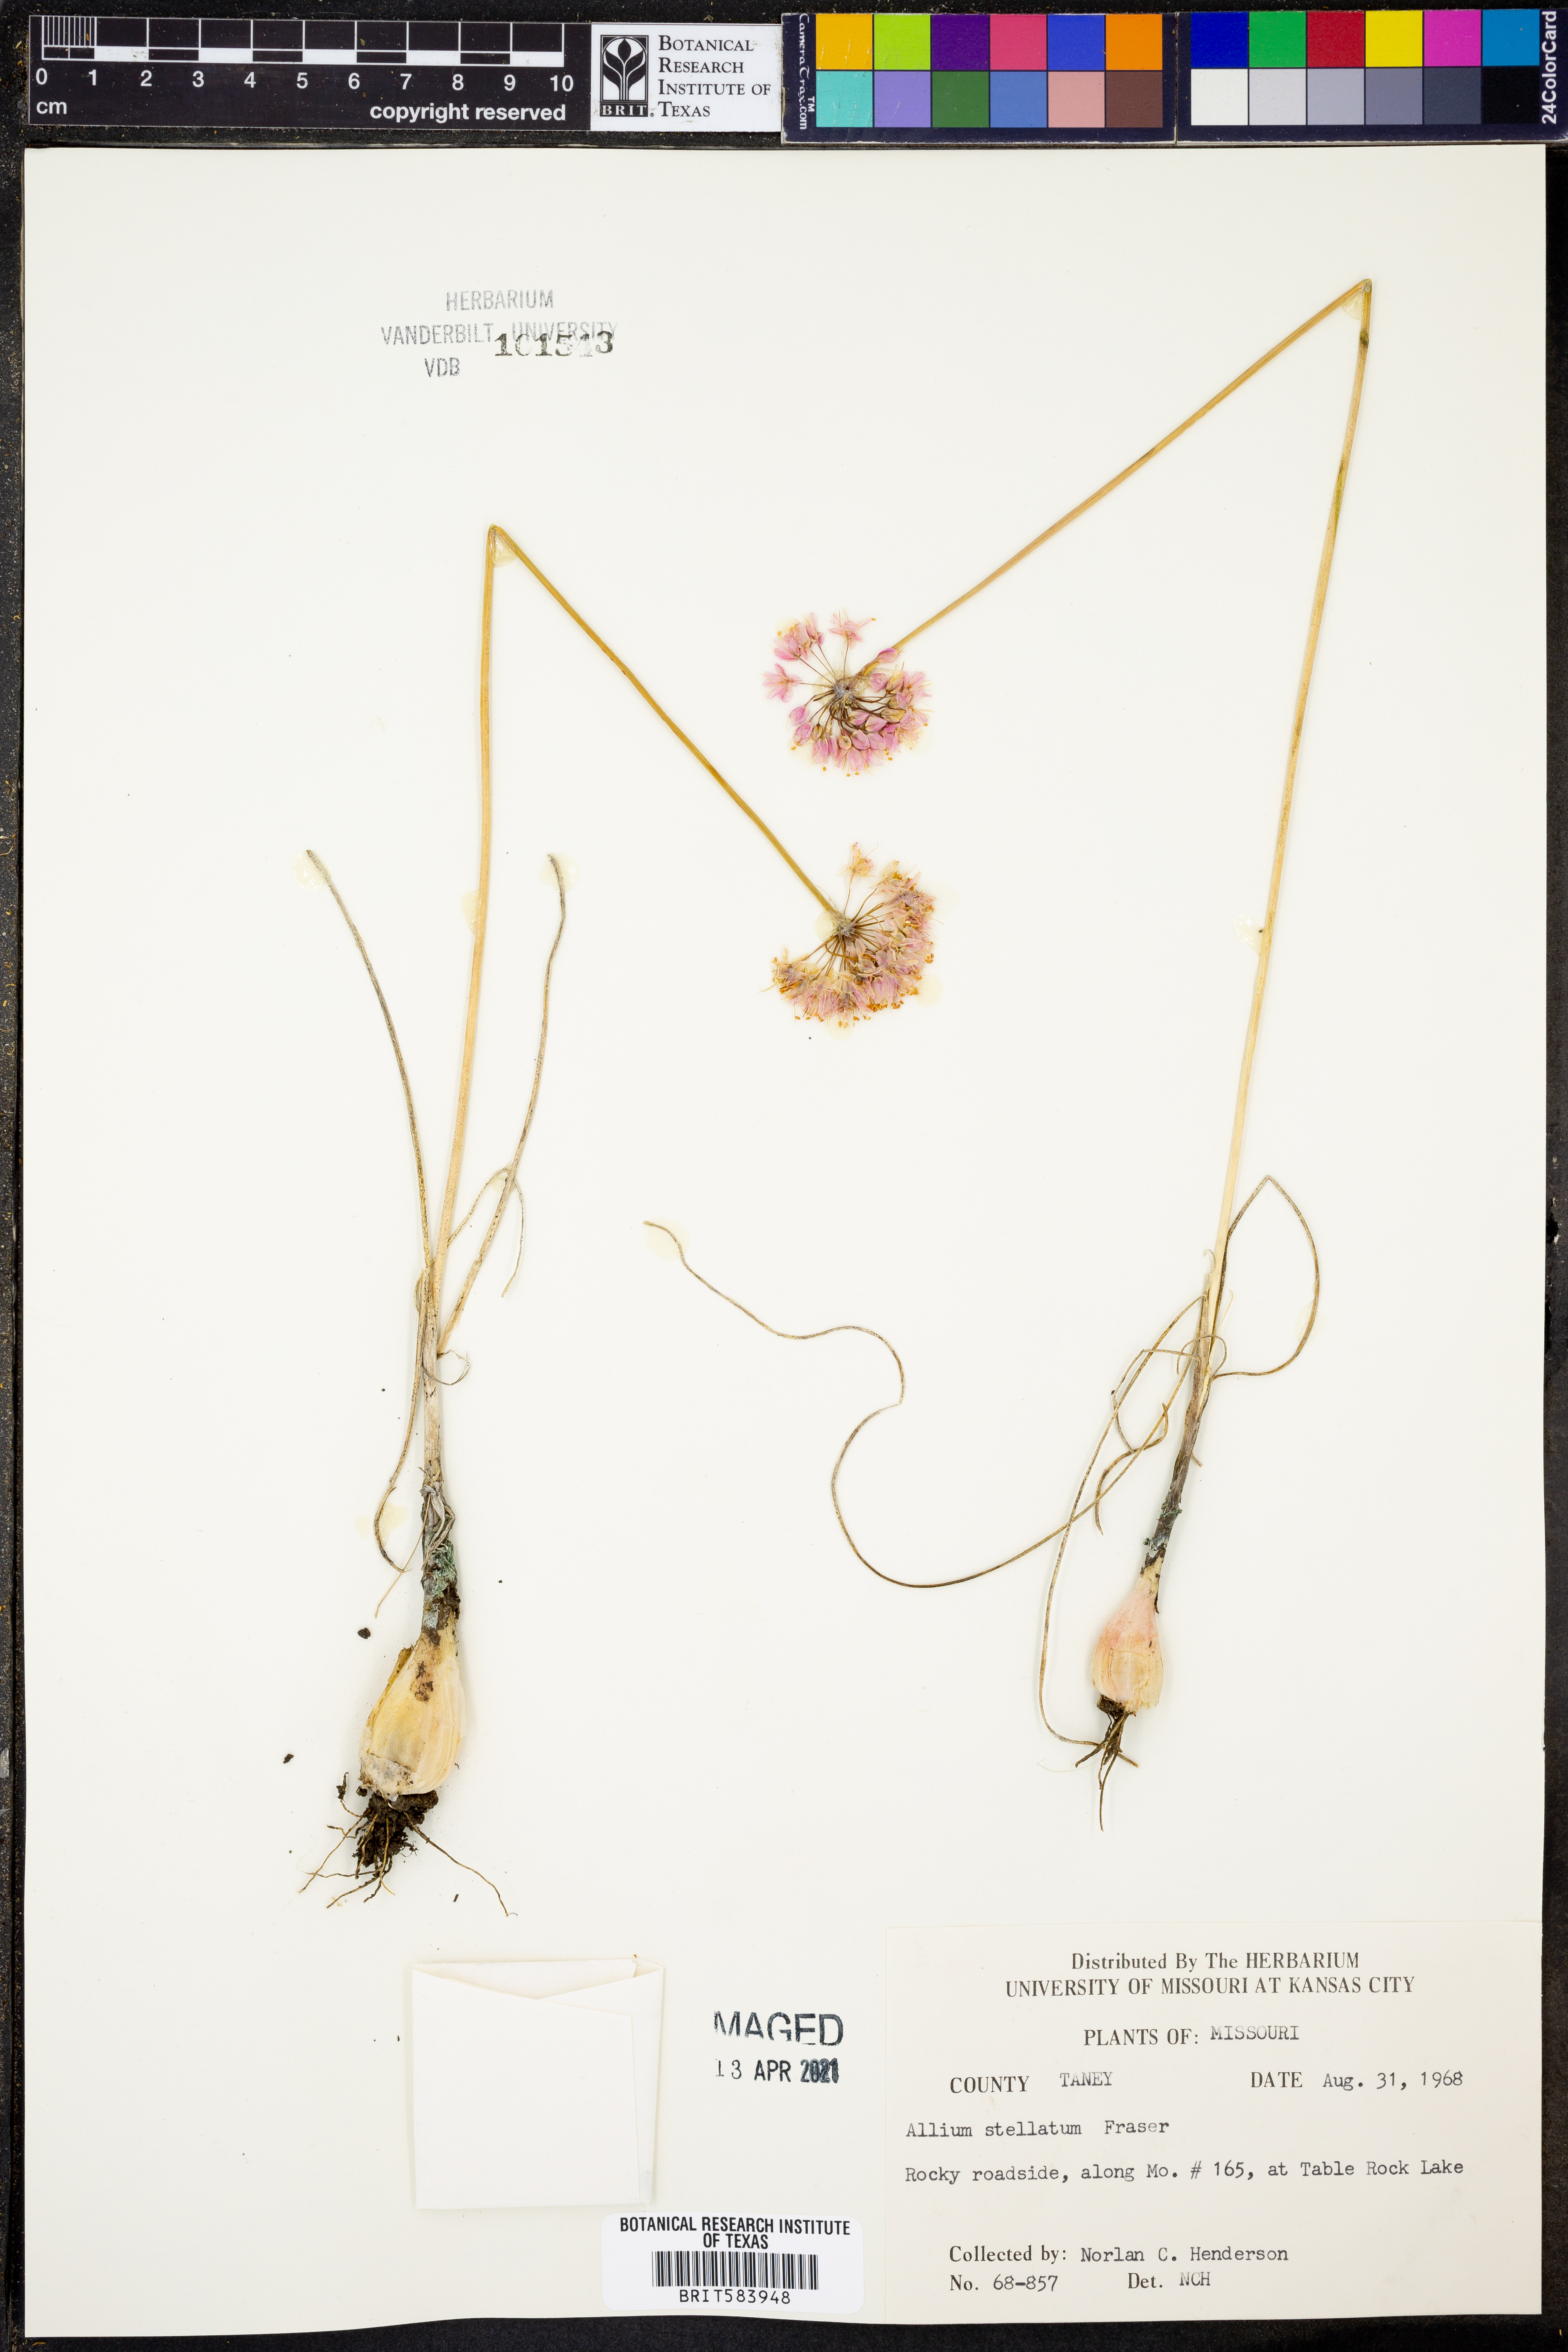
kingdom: Plantae
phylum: Tracheophyta
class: Liliopsida
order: Asparagales
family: Amaryllidaceae
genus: Allium
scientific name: Allium stellatum
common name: Autumn onion
